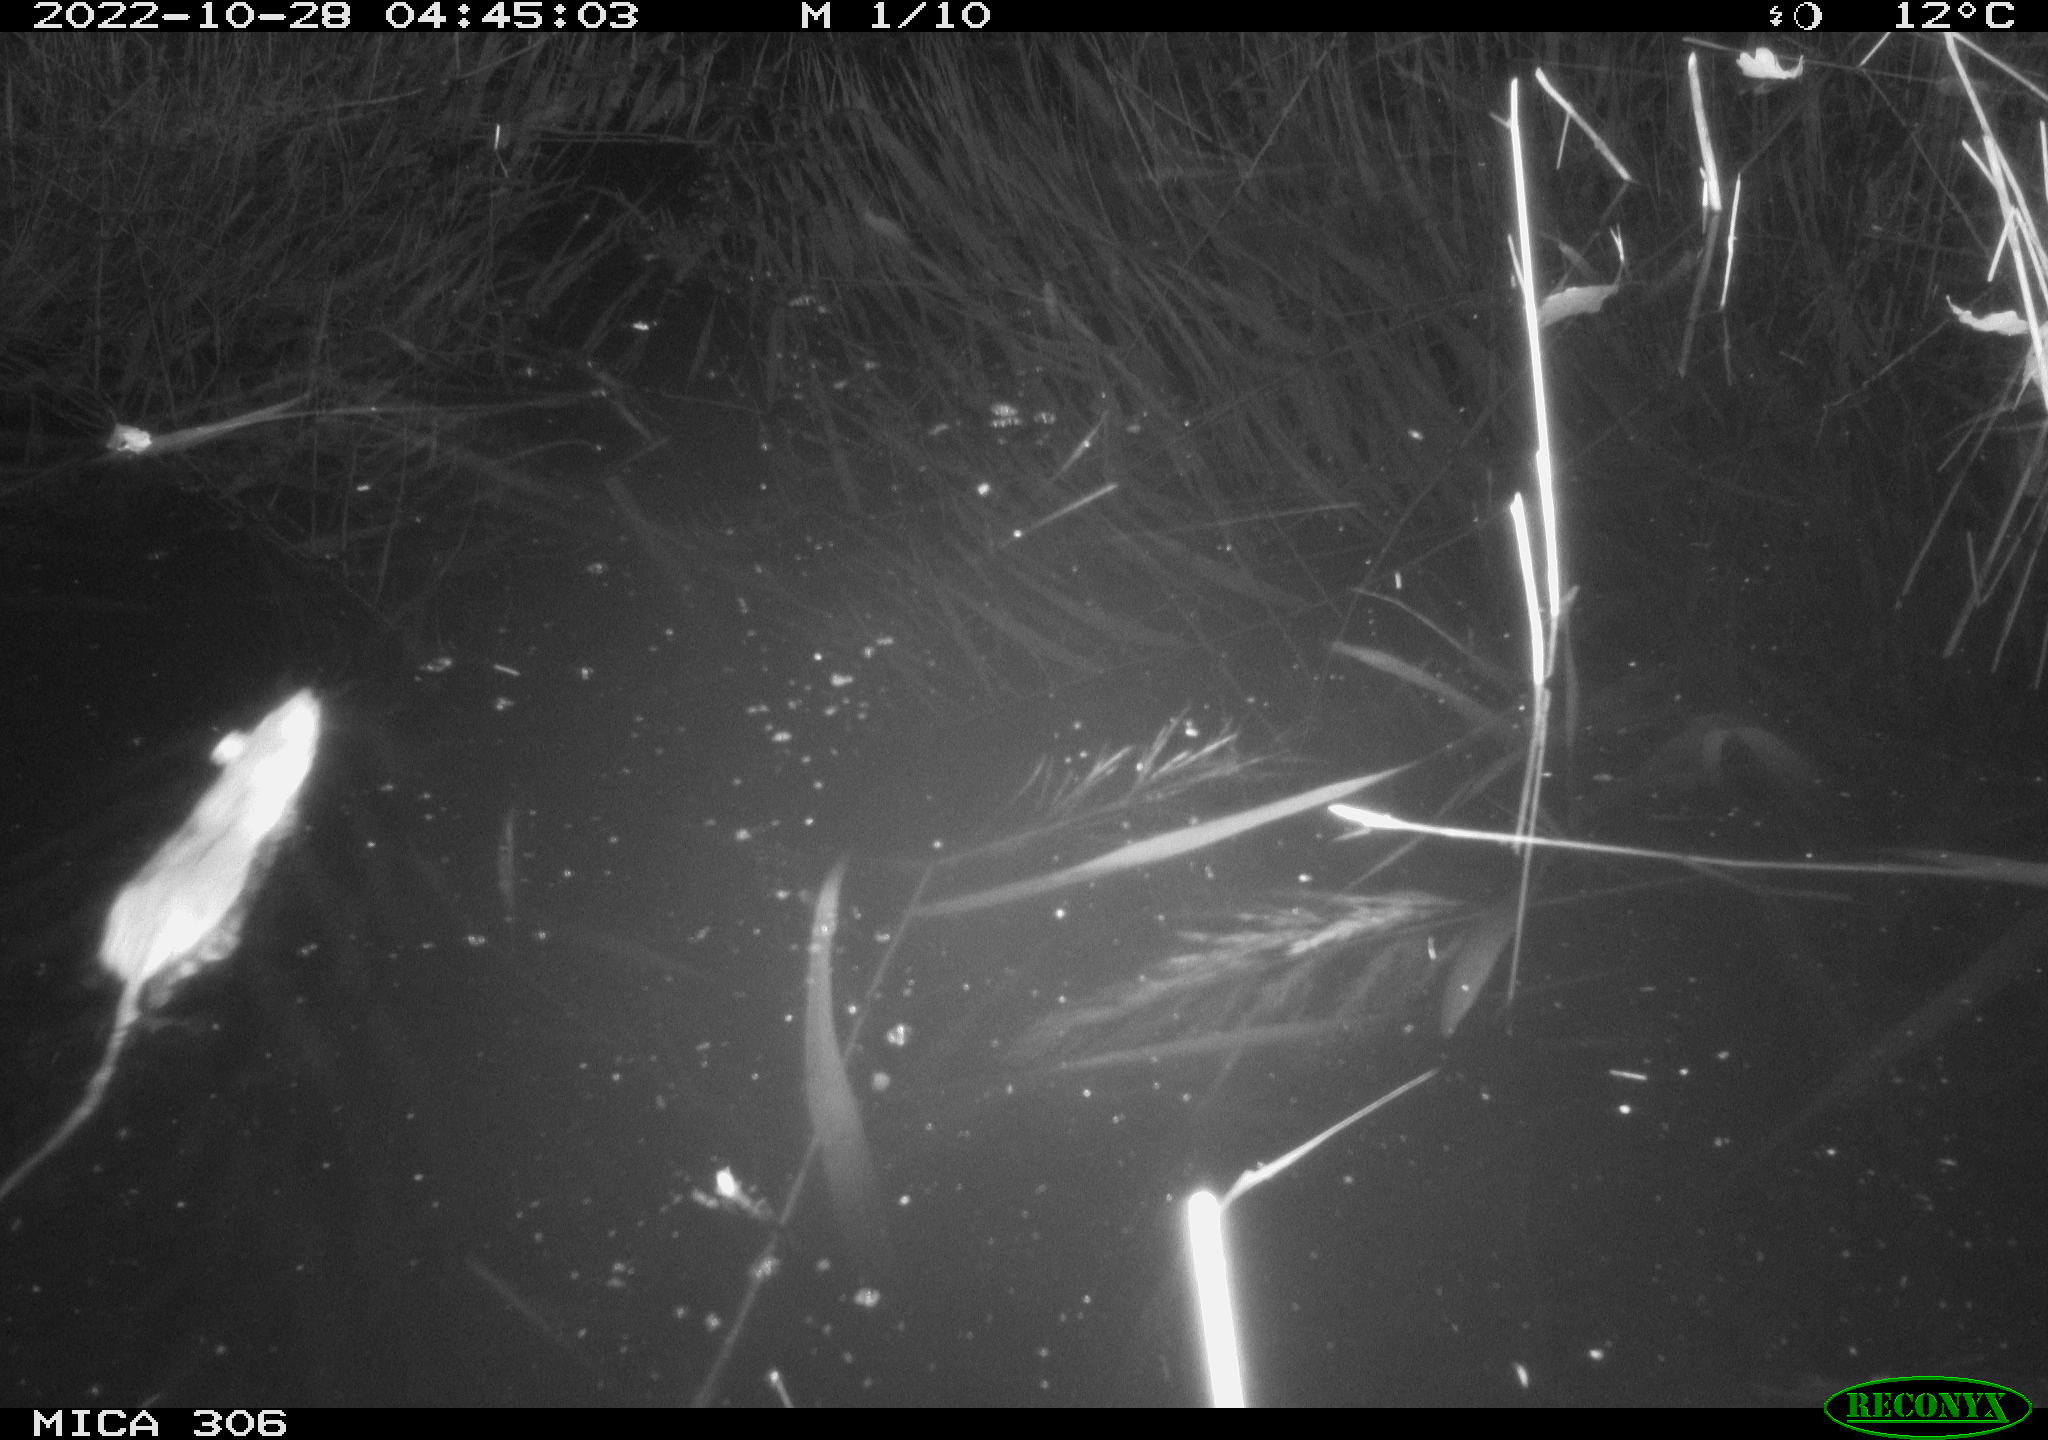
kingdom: Animalia
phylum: Chordata
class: Mammalia
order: Rodentia
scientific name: Rodentia
